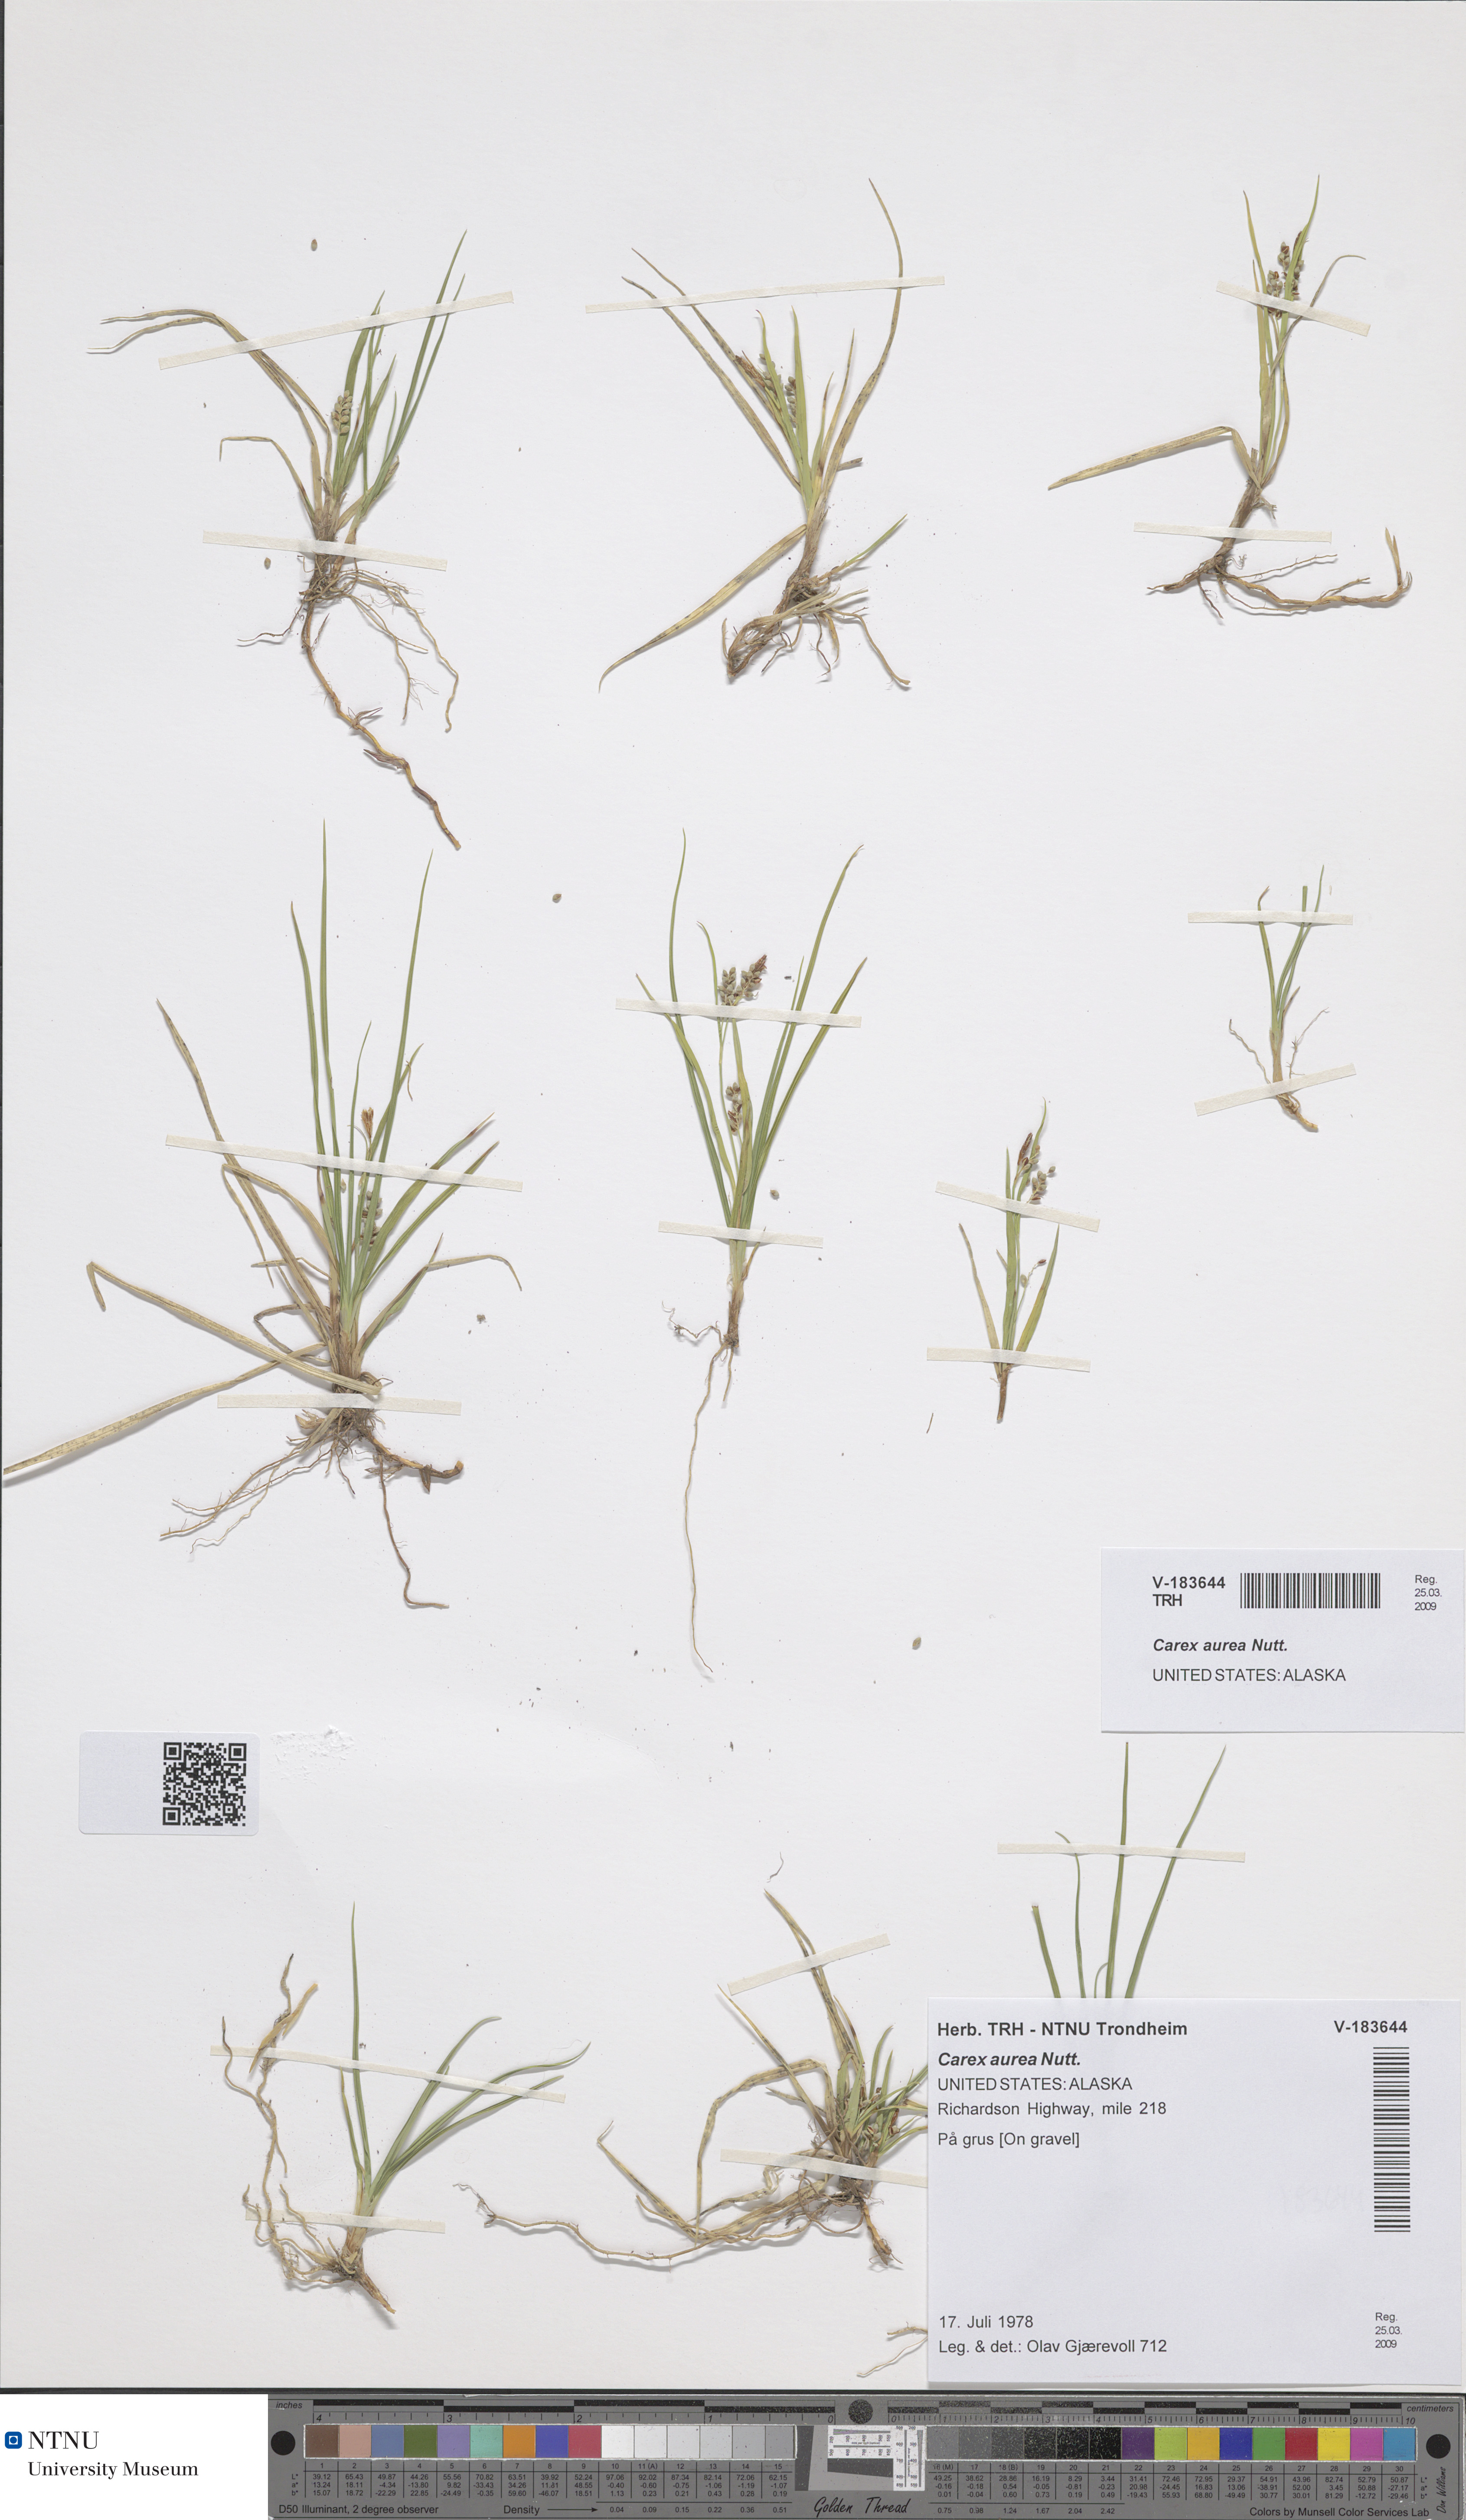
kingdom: Plantae
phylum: Tracheophyta
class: Liliopsida
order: Poales
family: Cyperaceae
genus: Carex
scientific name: Carex aurea
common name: Golden sedge
